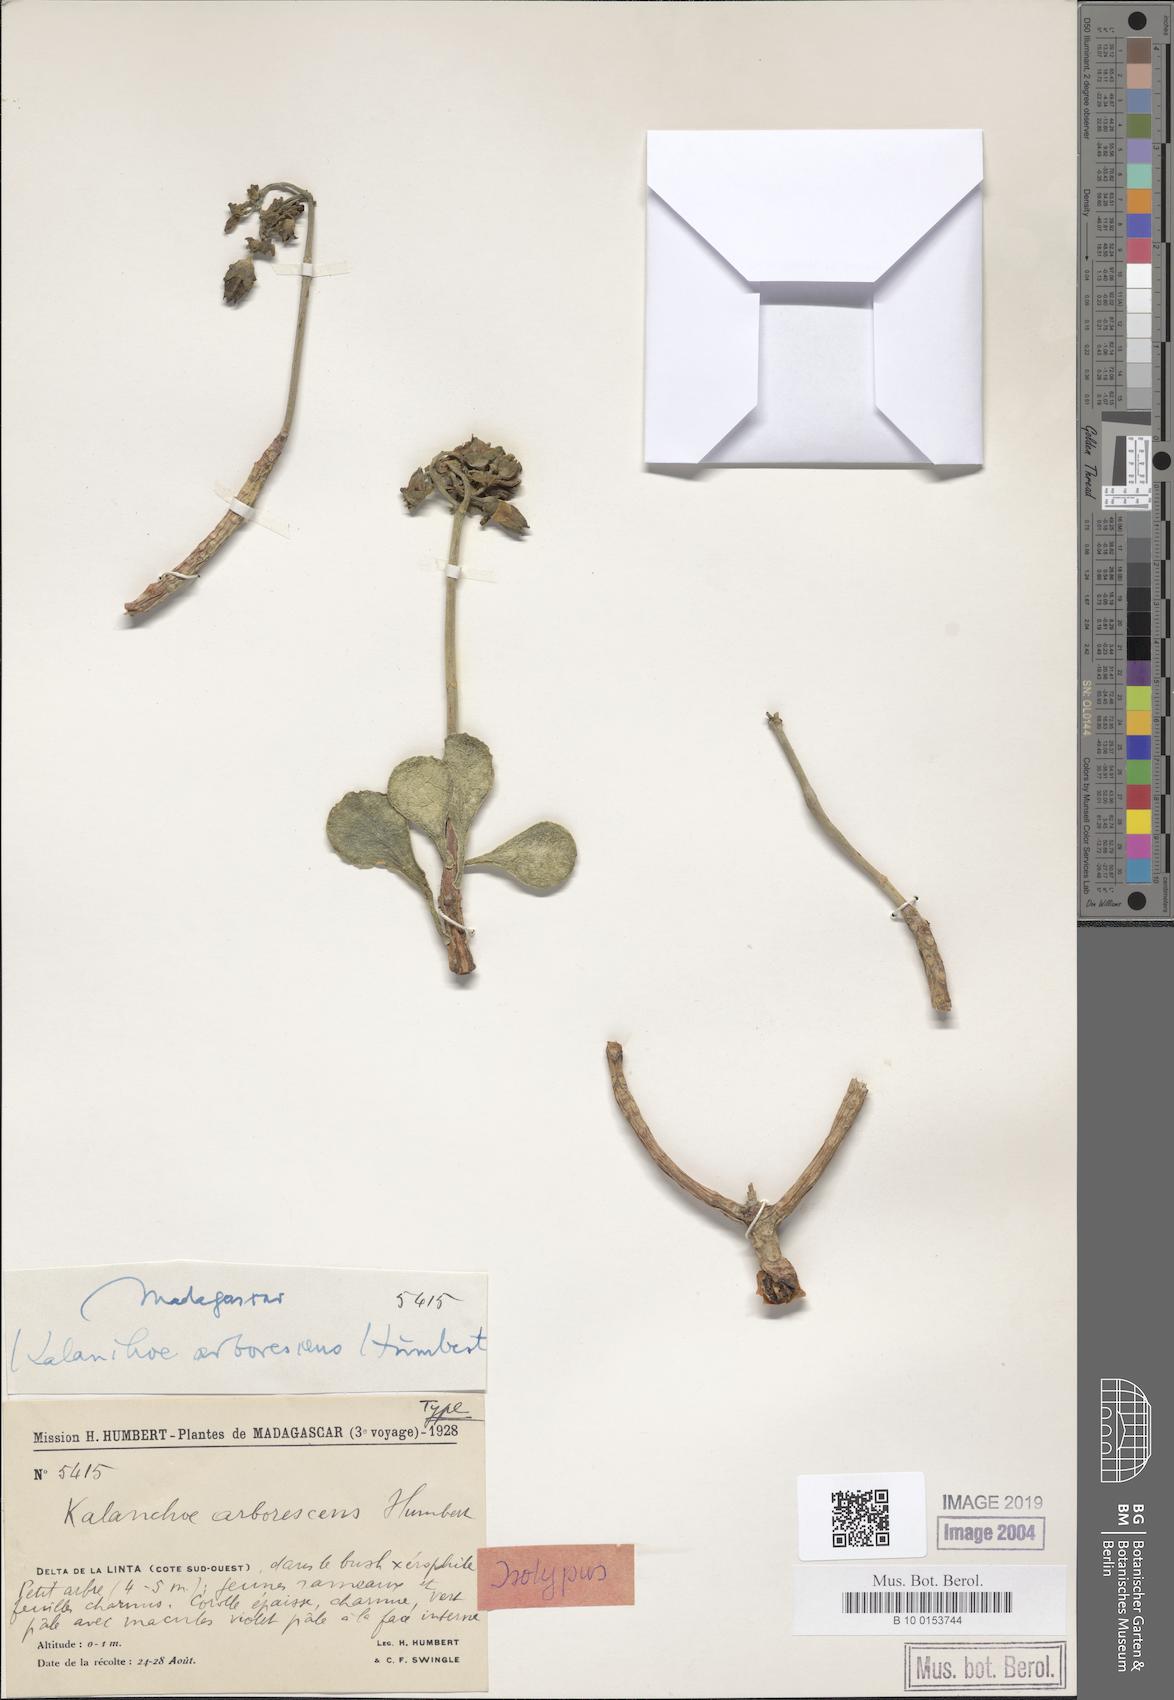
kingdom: Plantae
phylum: Tracheophyta
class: Magnoliopsida
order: Saxifragales
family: Crassulaceae
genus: Kalanchoe
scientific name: Kalanchoe arborescens
